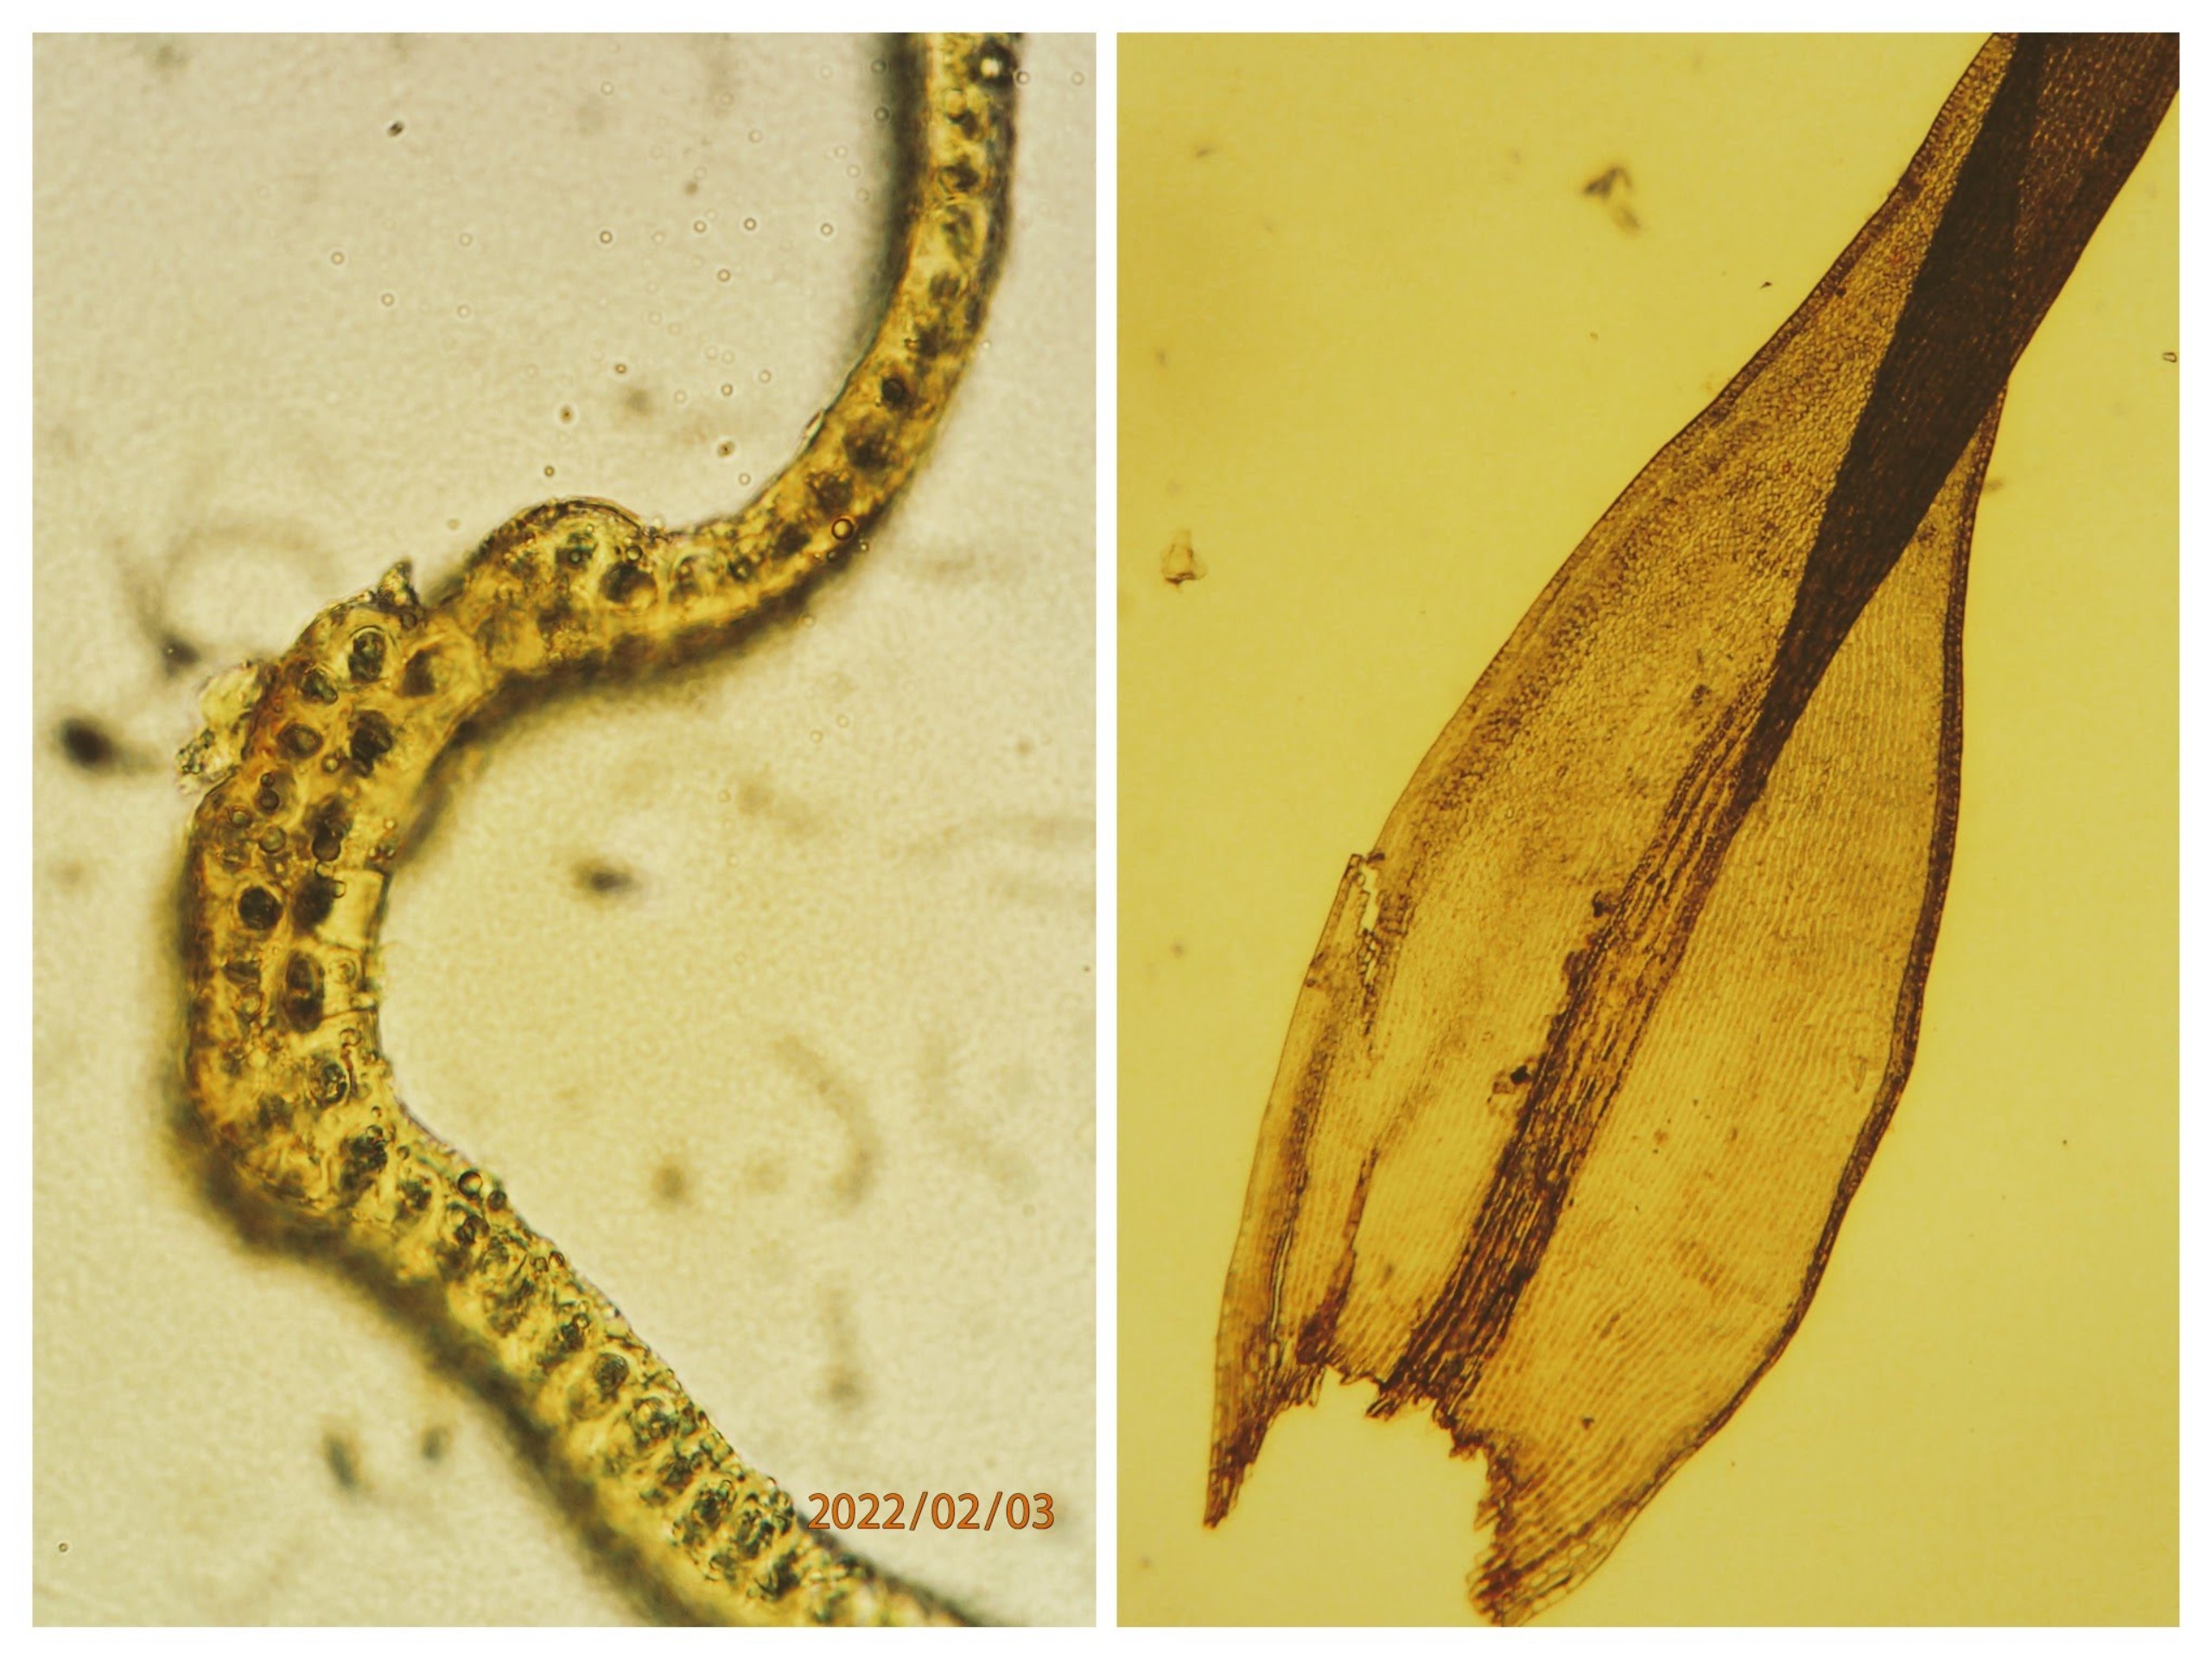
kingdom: Plantae
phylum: Bryophyta
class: Bryopsida
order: Grimmiales
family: Grimmiaceae
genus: Bucklandiella
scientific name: Bucklandiella heterosticha
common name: Sten-børstemos
